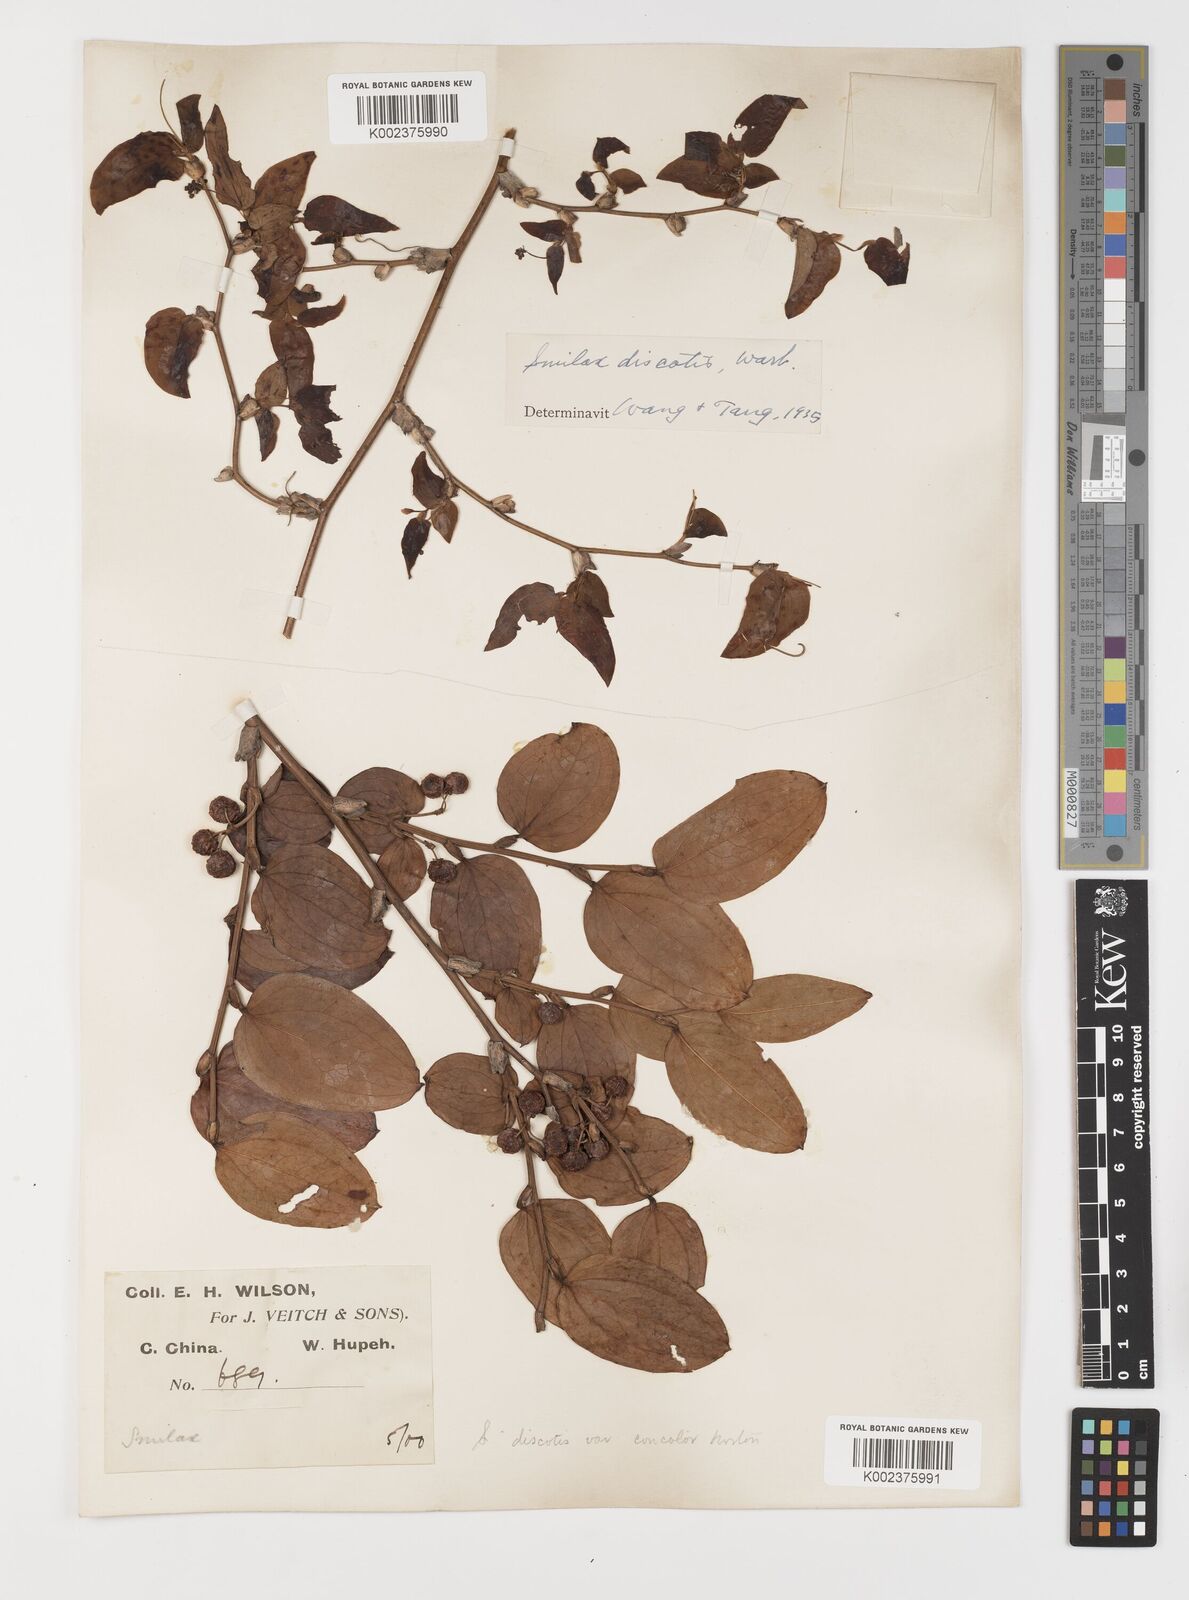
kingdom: Plantae
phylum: Tracheophyta
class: Liliopsida
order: Liliales
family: Smilacaceae
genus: Smilax
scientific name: Smilax discotis
